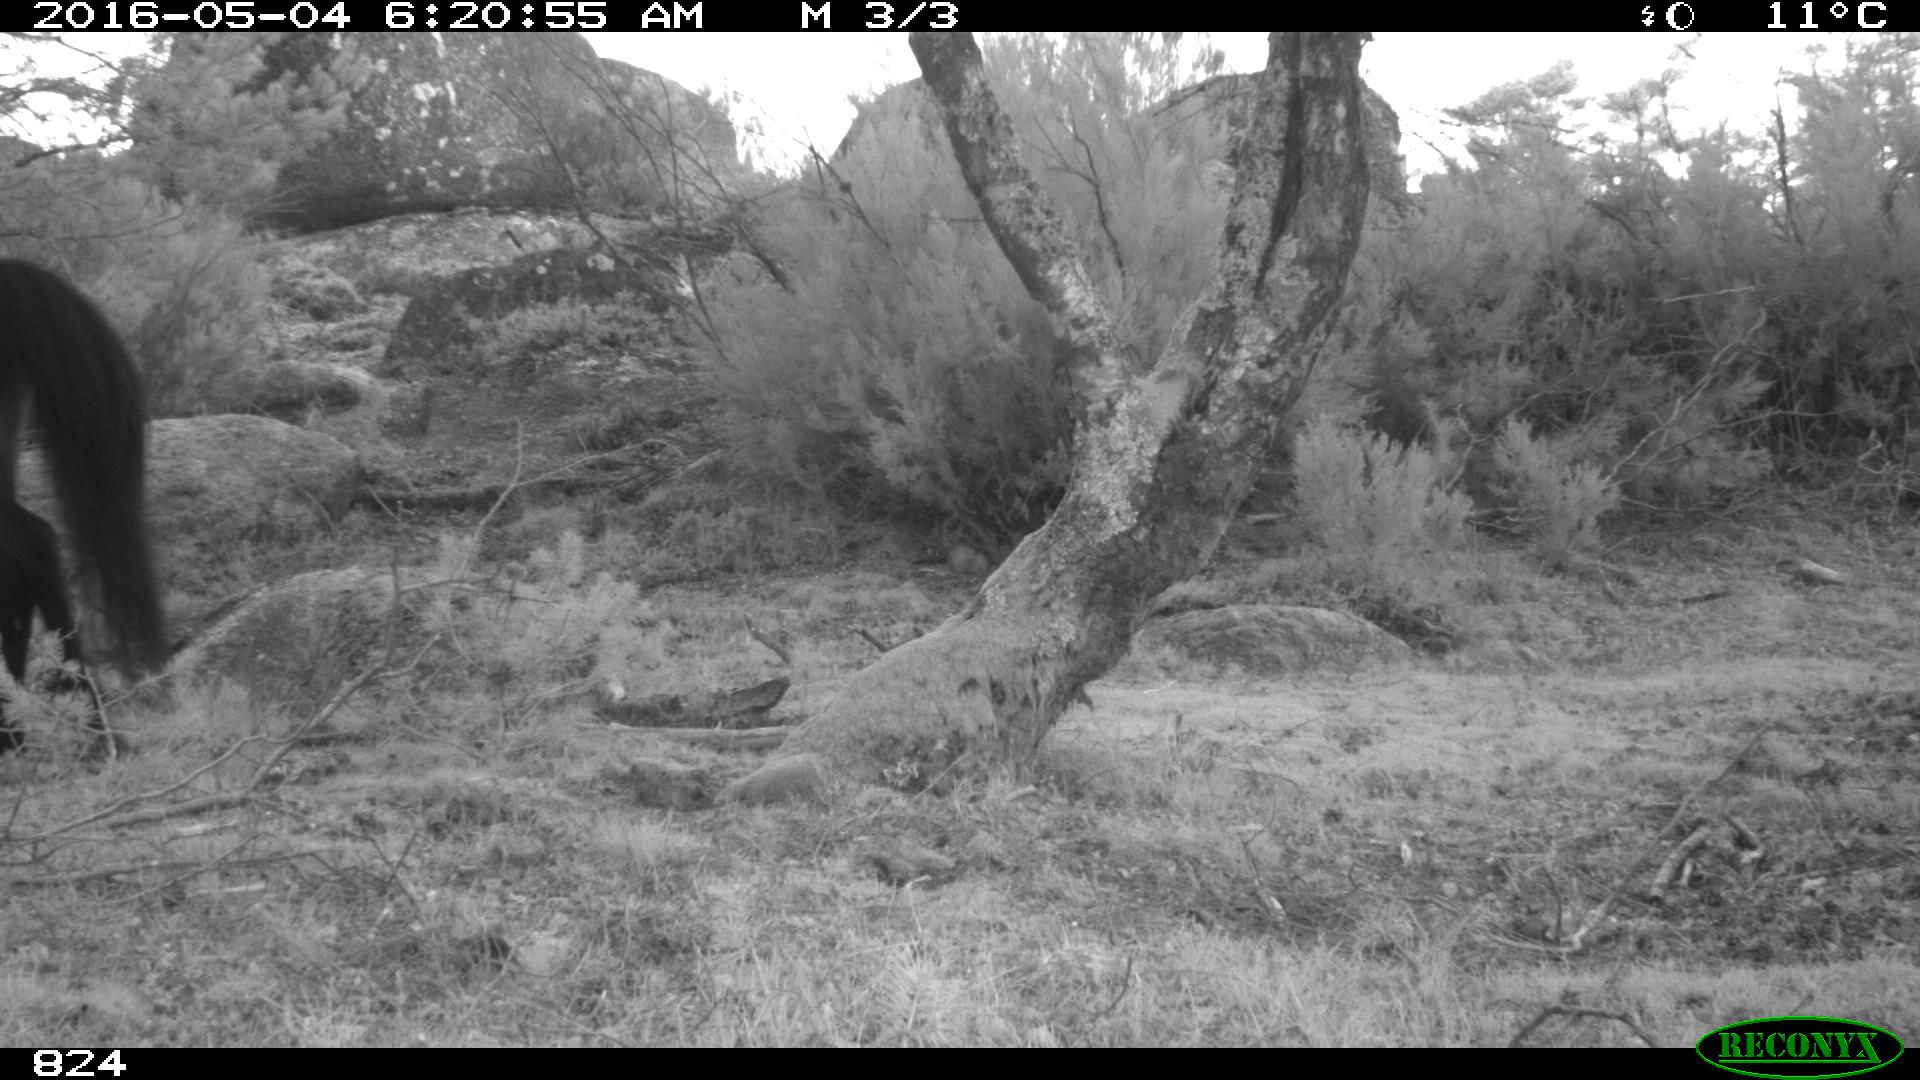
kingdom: Animalia
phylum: Chordata
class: Mammalia
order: Perissodactyla
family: Equidae
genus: Equus
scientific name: Equus caballus
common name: Horse
